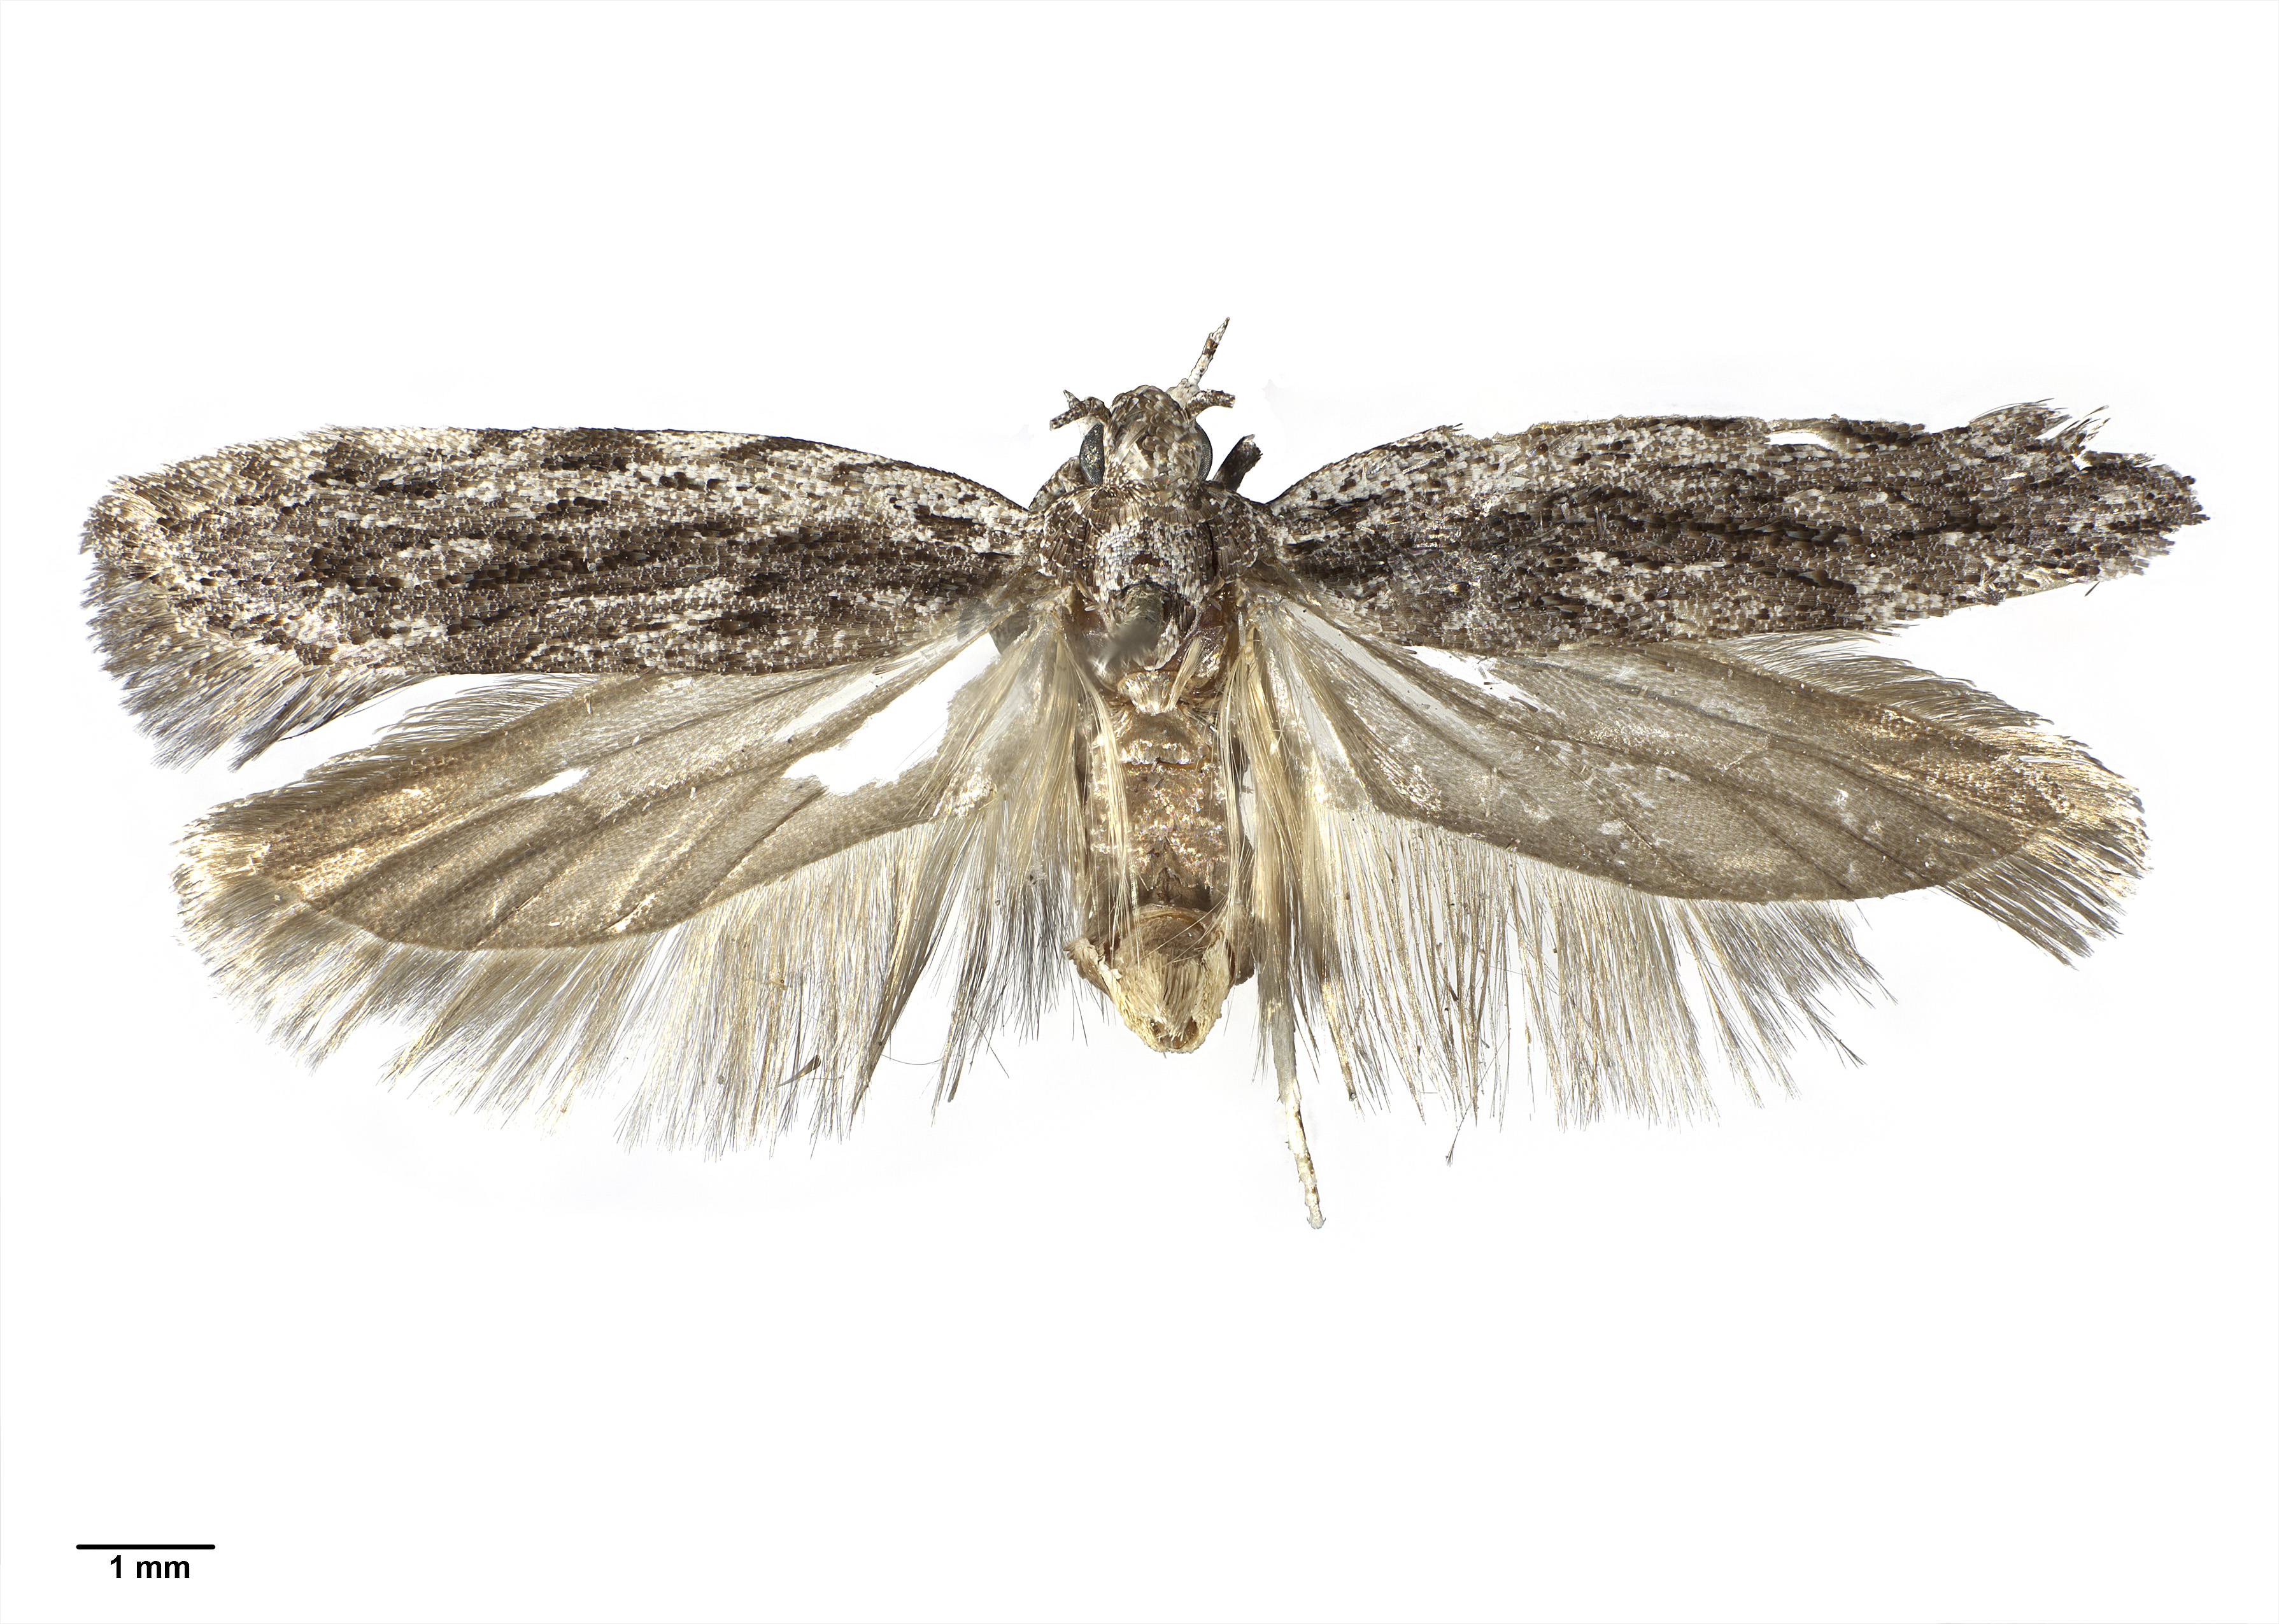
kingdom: Animalia
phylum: Arthropoda
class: Insecta
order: Lepidoptera
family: Gelechiidae
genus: Anarsia
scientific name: Anarsia dryinopa
